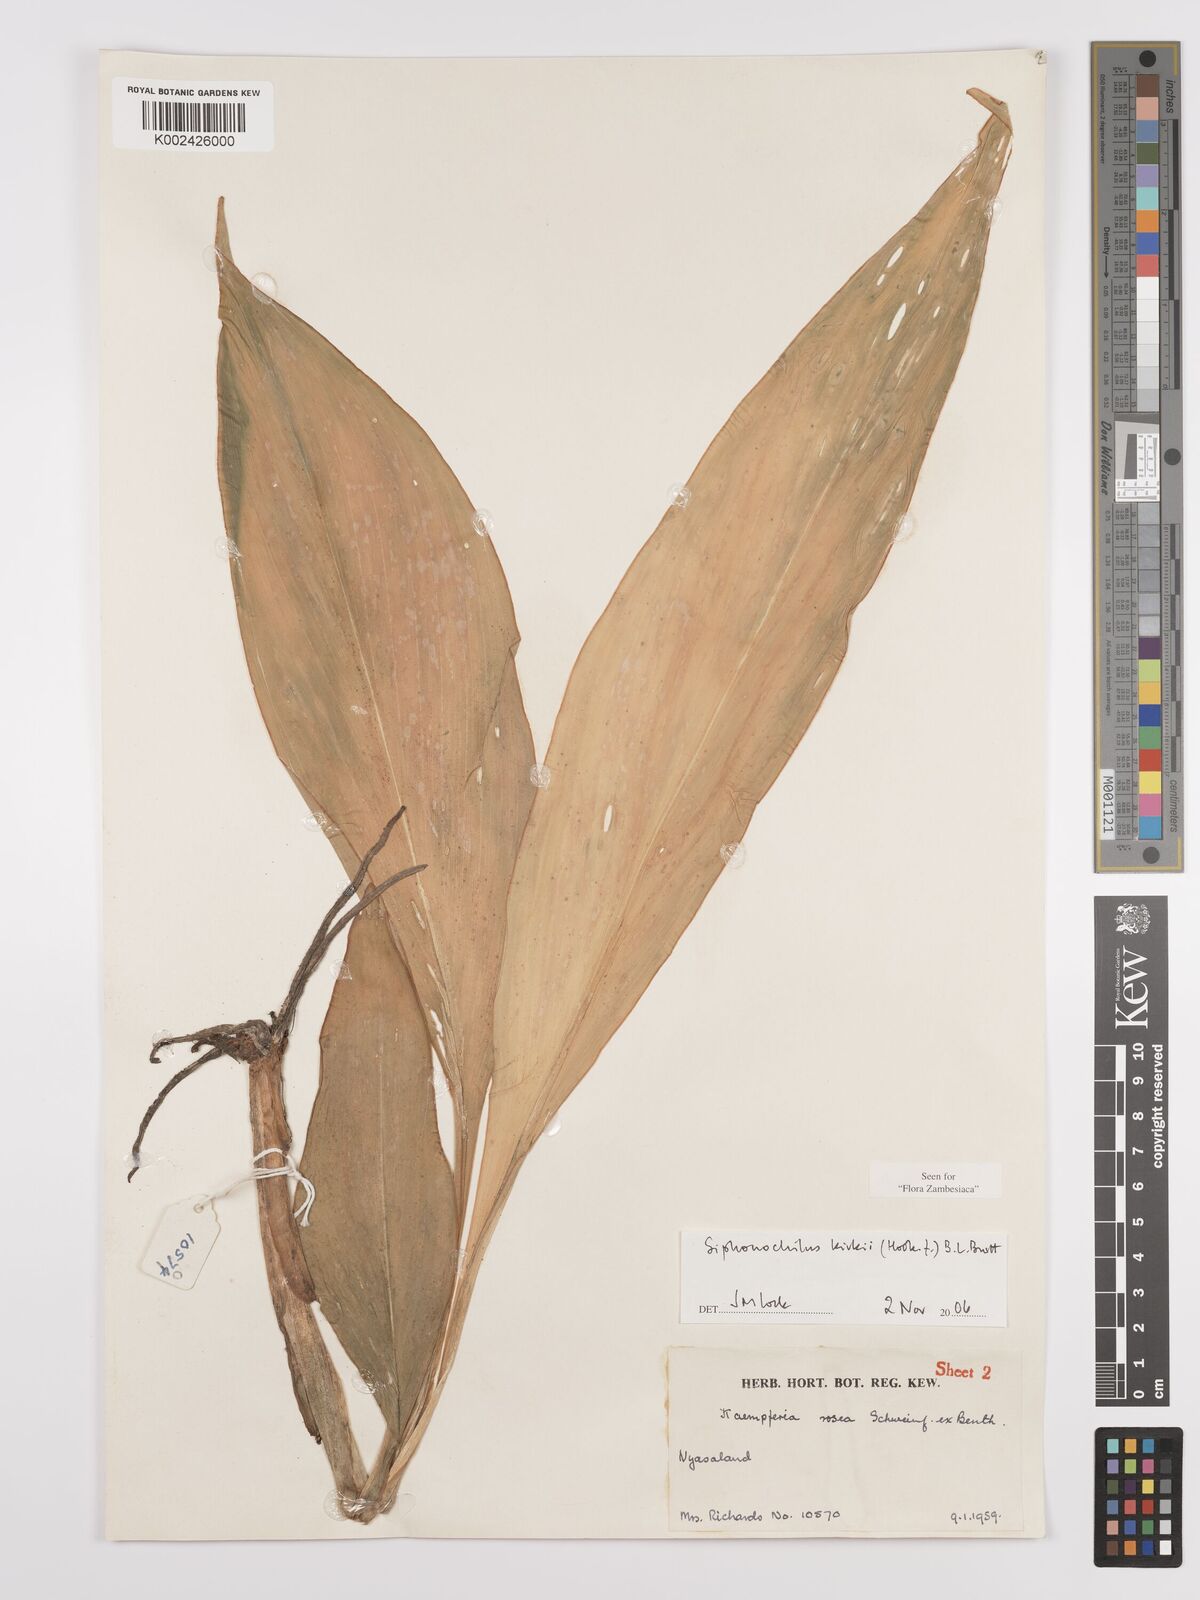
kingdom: Plantae
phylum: Tracheophyta
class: Liliopsida
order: Zingiberales
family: Zingiberaceae
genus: Siphonochilus
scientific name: Siphonochilus kirkii
